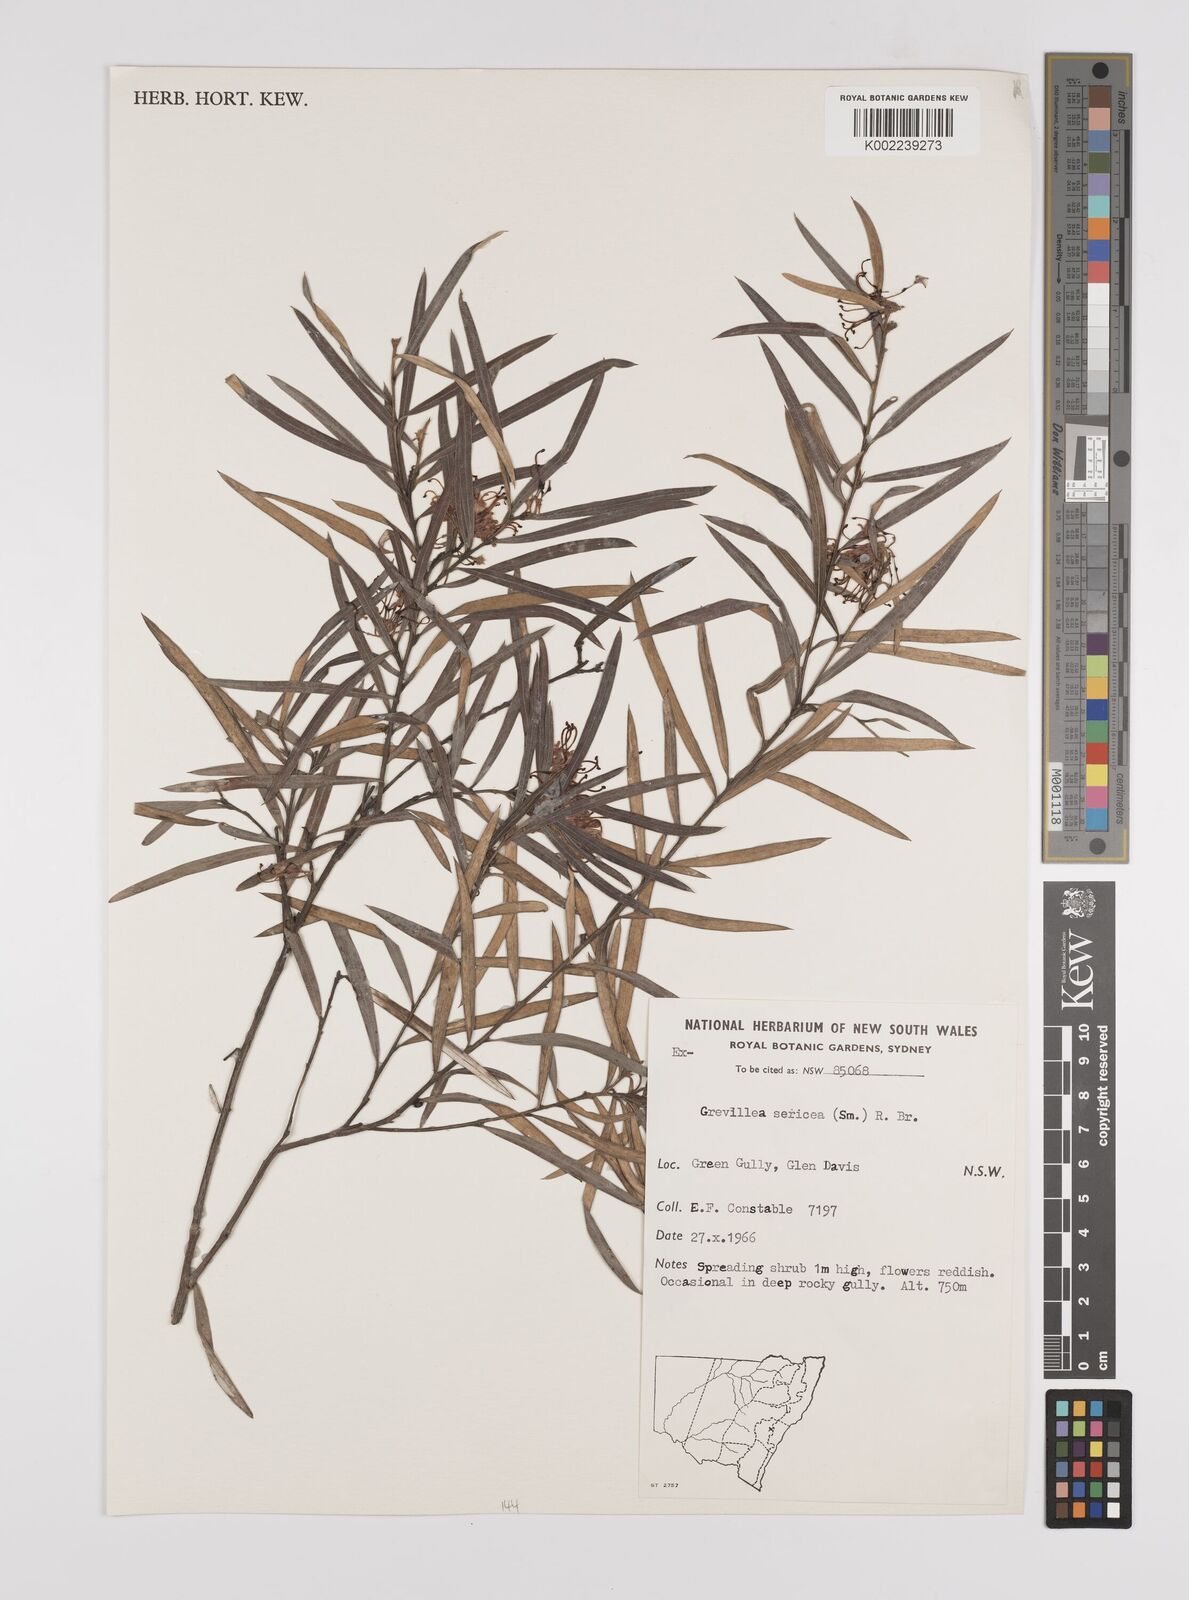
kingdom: Plantae
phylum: Tracheophyta
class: Magnoliopsida
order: Proteales
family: Proteaceae
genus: Grevillea
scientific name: Grevillea sericea
